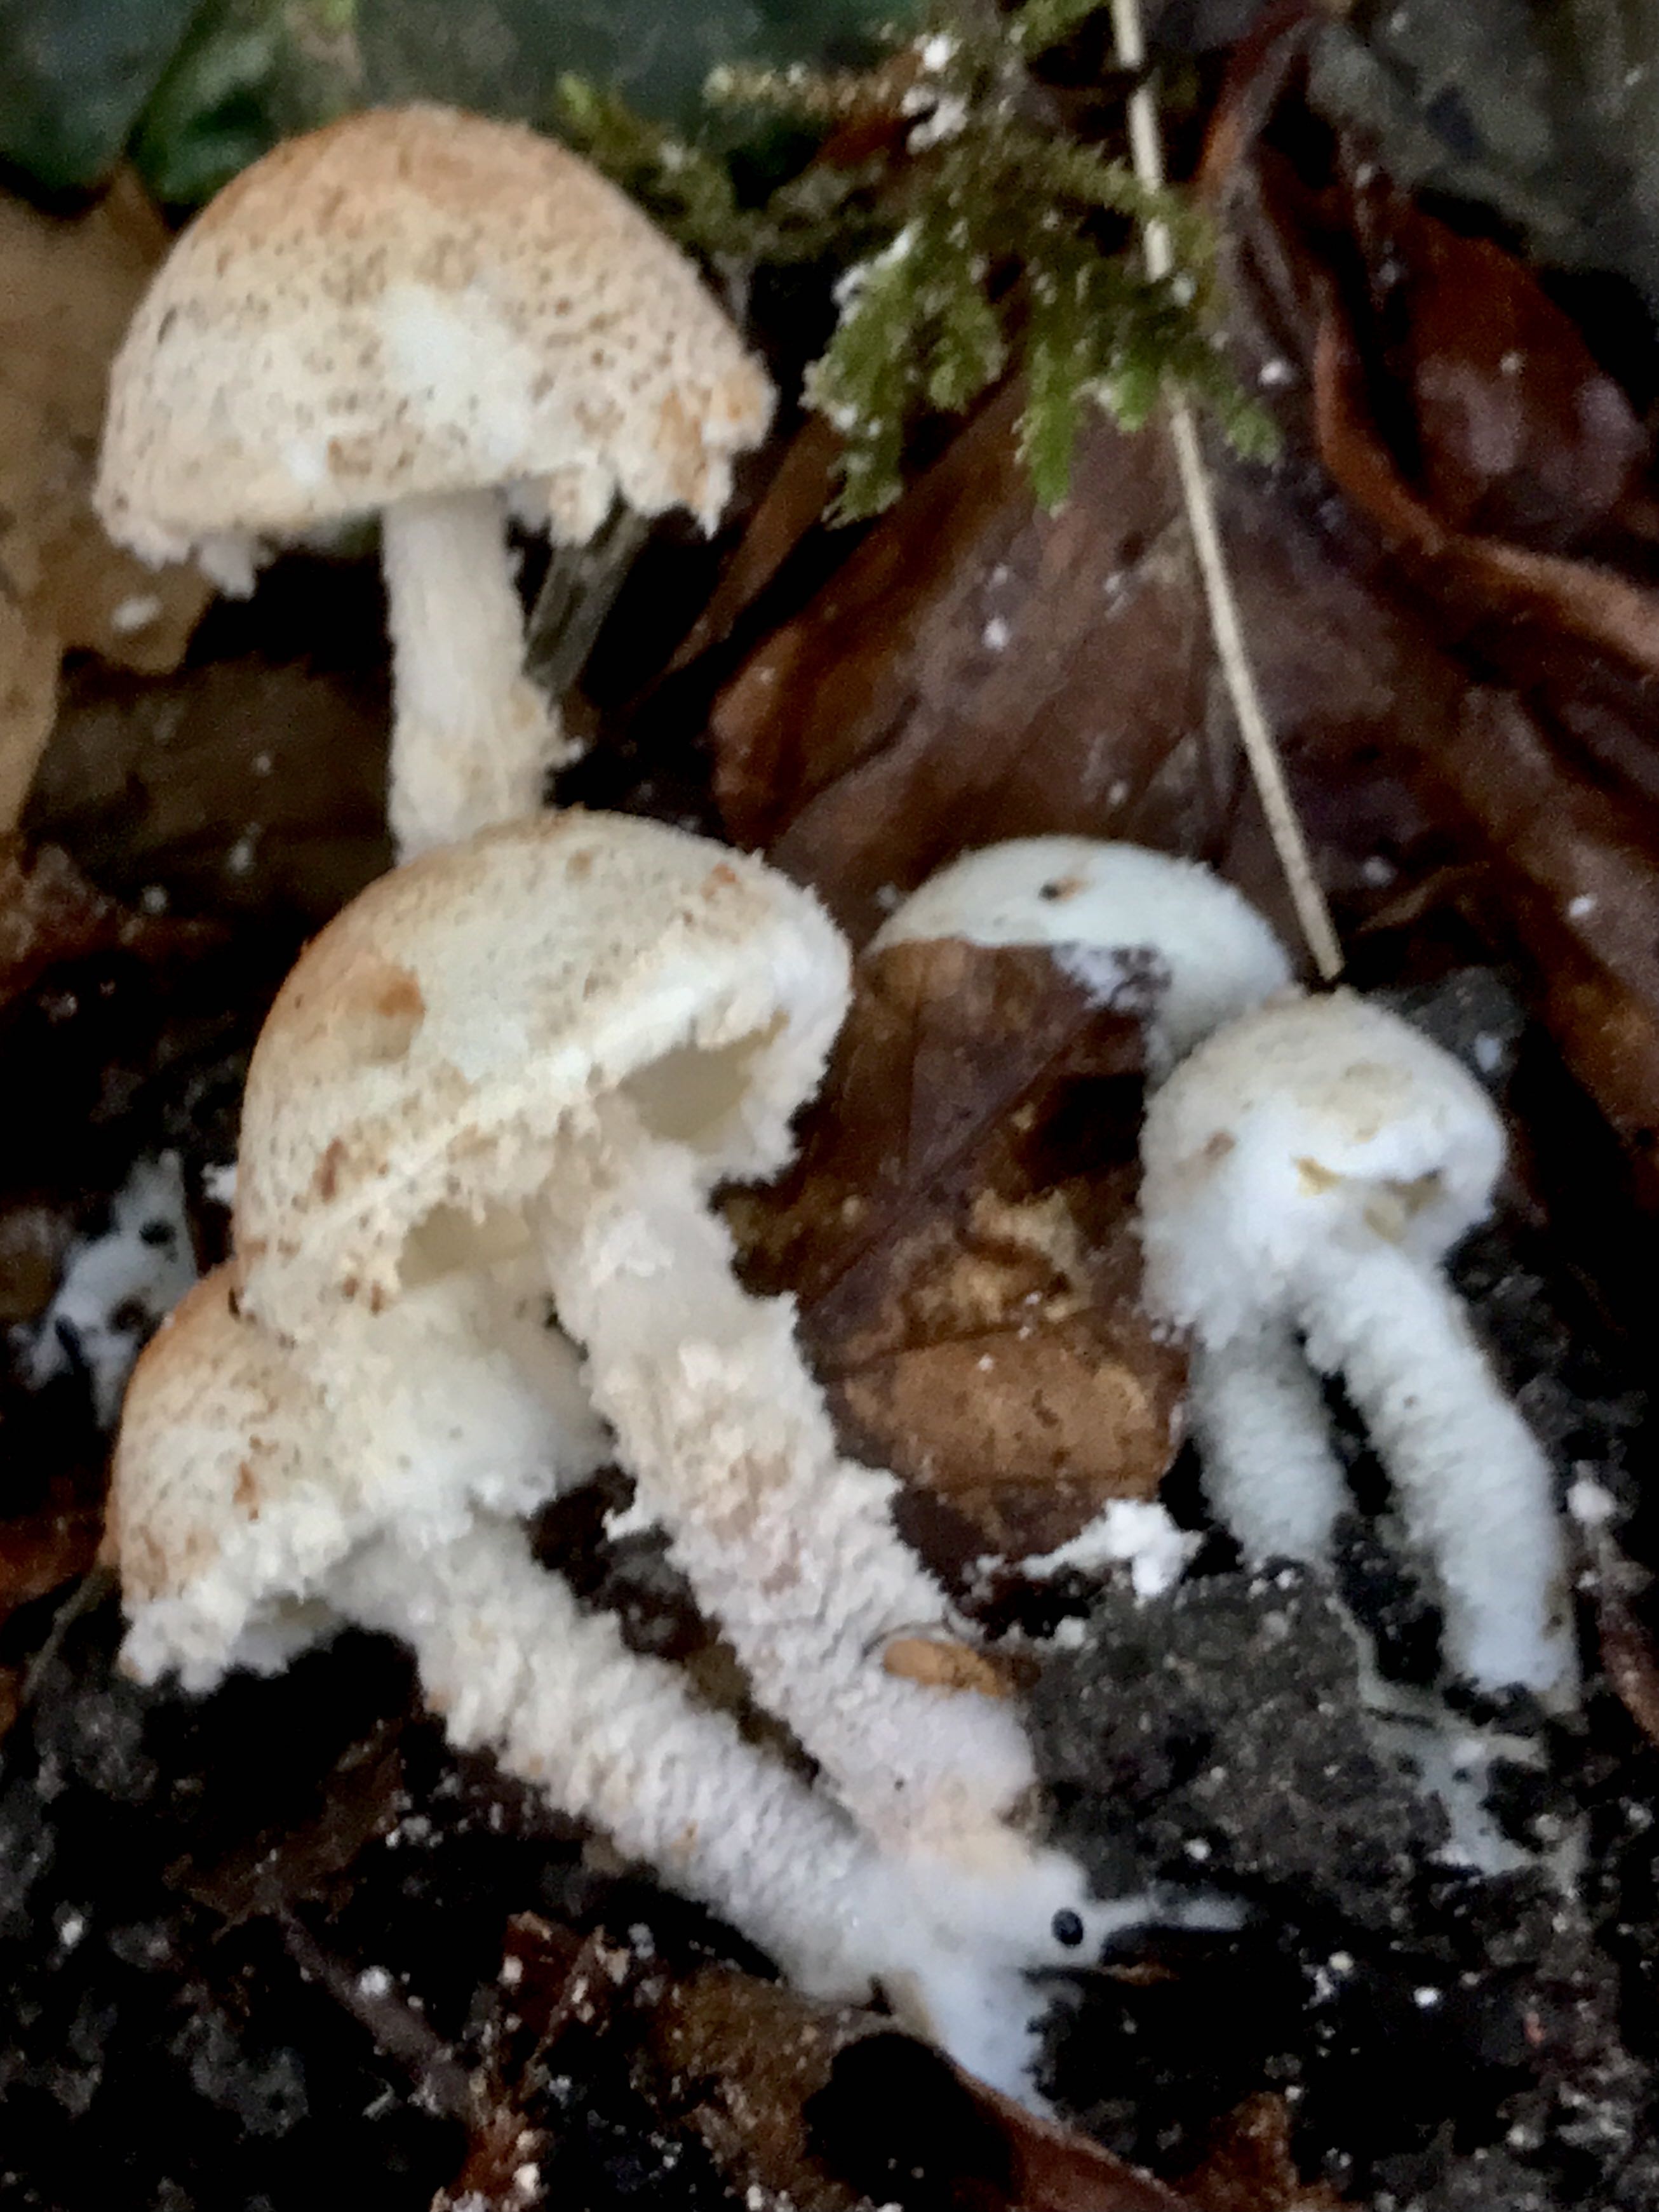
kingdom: Fungi
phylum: Basidiomycota
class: Agaricomycetes
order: Agaricales
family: Agaricaceae
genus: Cystolepiota
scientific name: Cystolepiota
